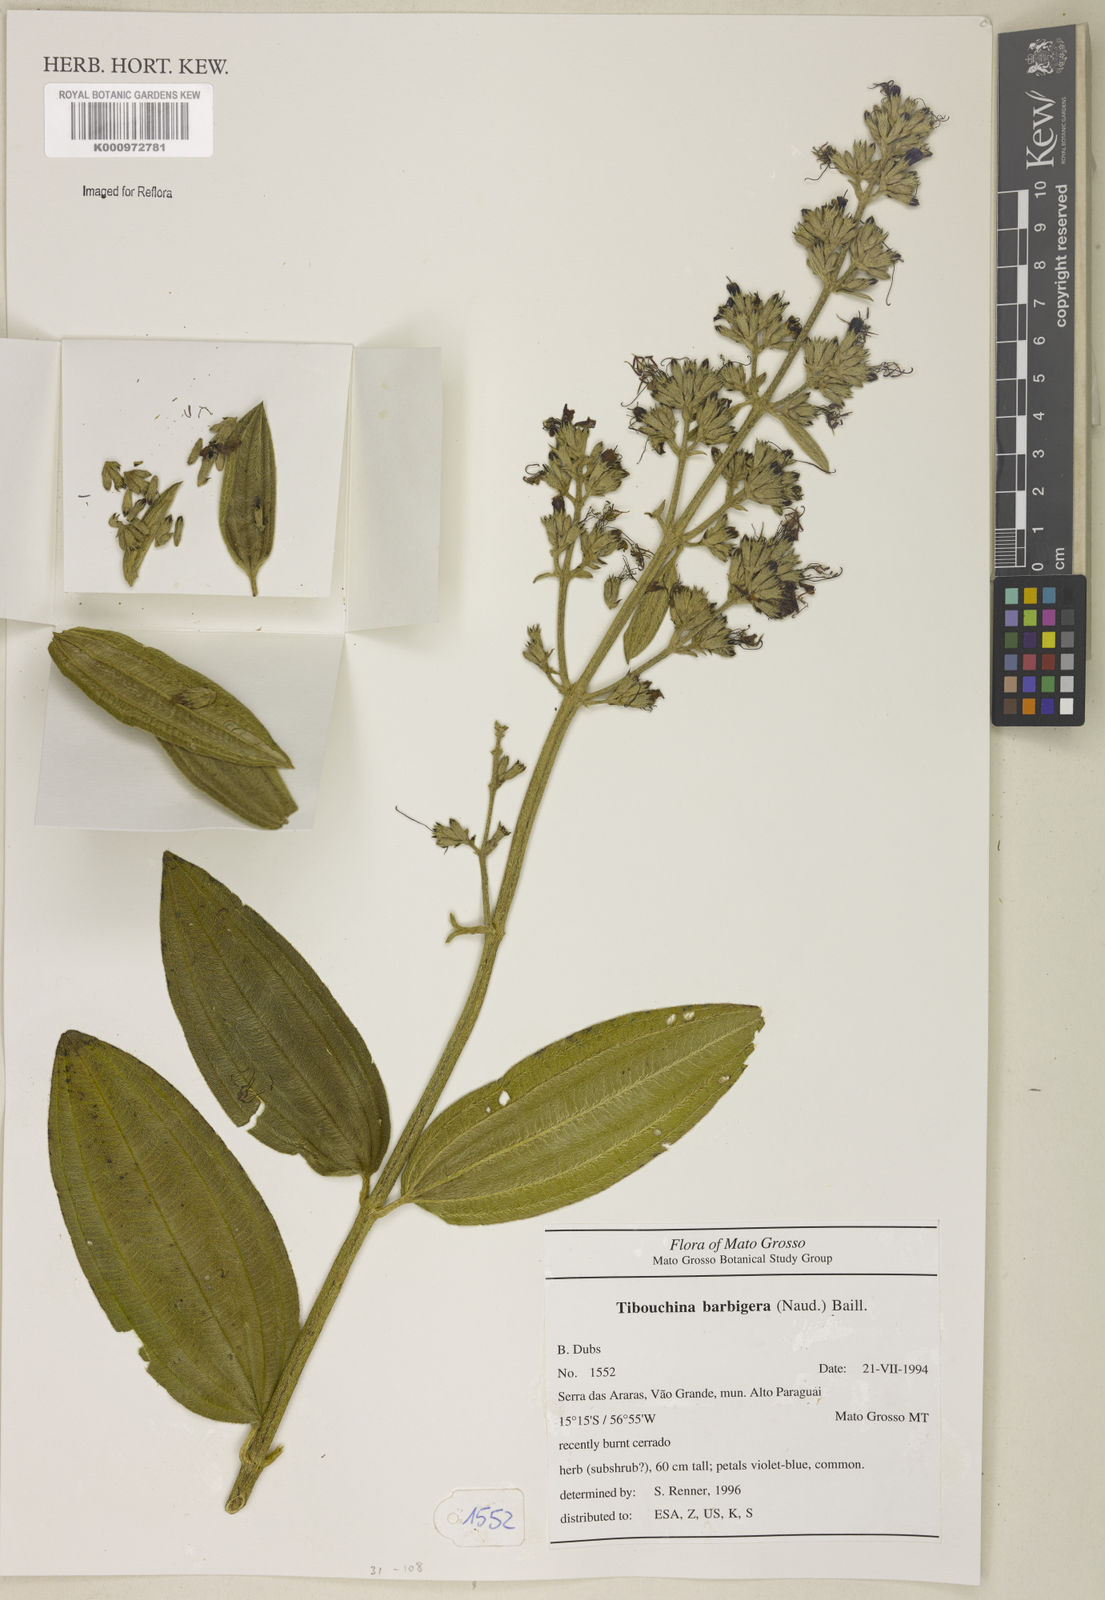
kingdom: Plantae
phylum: Tracheophyta
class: Magnoliopsida
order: Myrtales
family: Melastomataceae
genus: Pleroma
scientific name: Pleroma barbigerum
